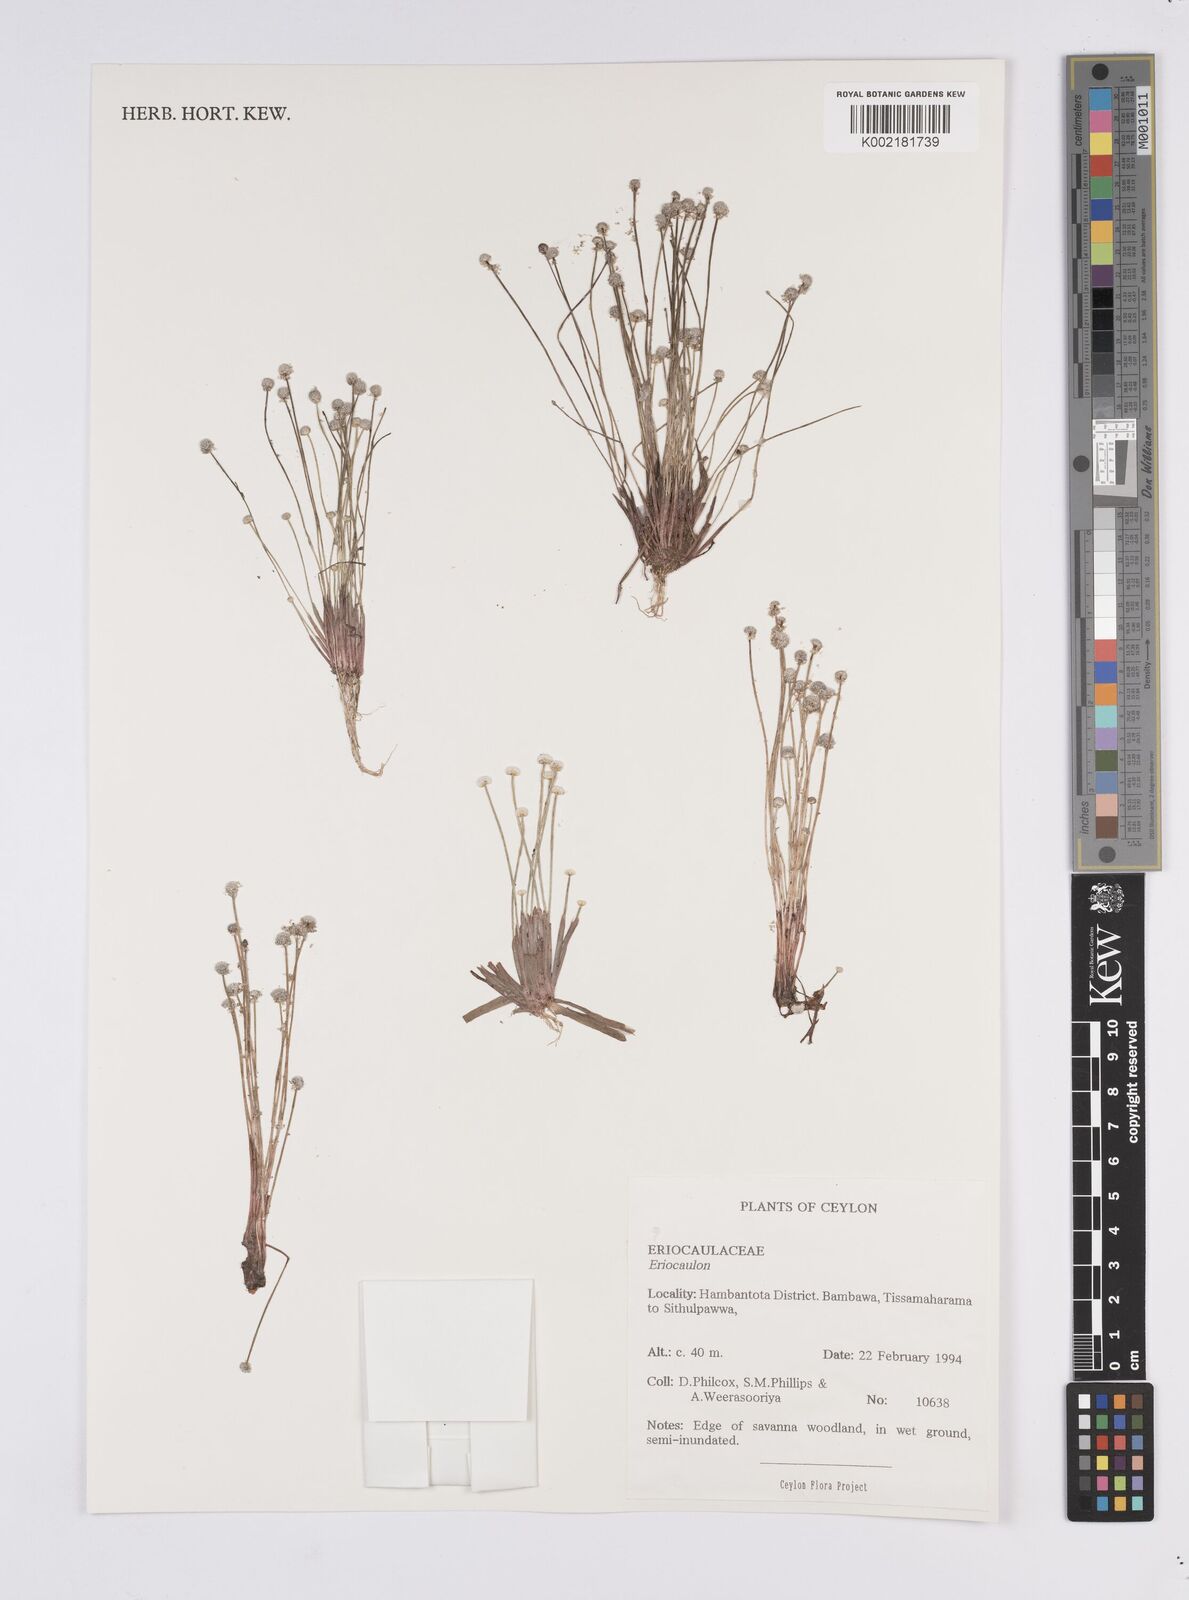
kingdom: Plantae
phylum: Tracheophyta
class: Liliopsida
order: Poales
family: Eriocaulaceae
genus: Eriocaulon
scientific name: Eriocaulon quinquangulare
